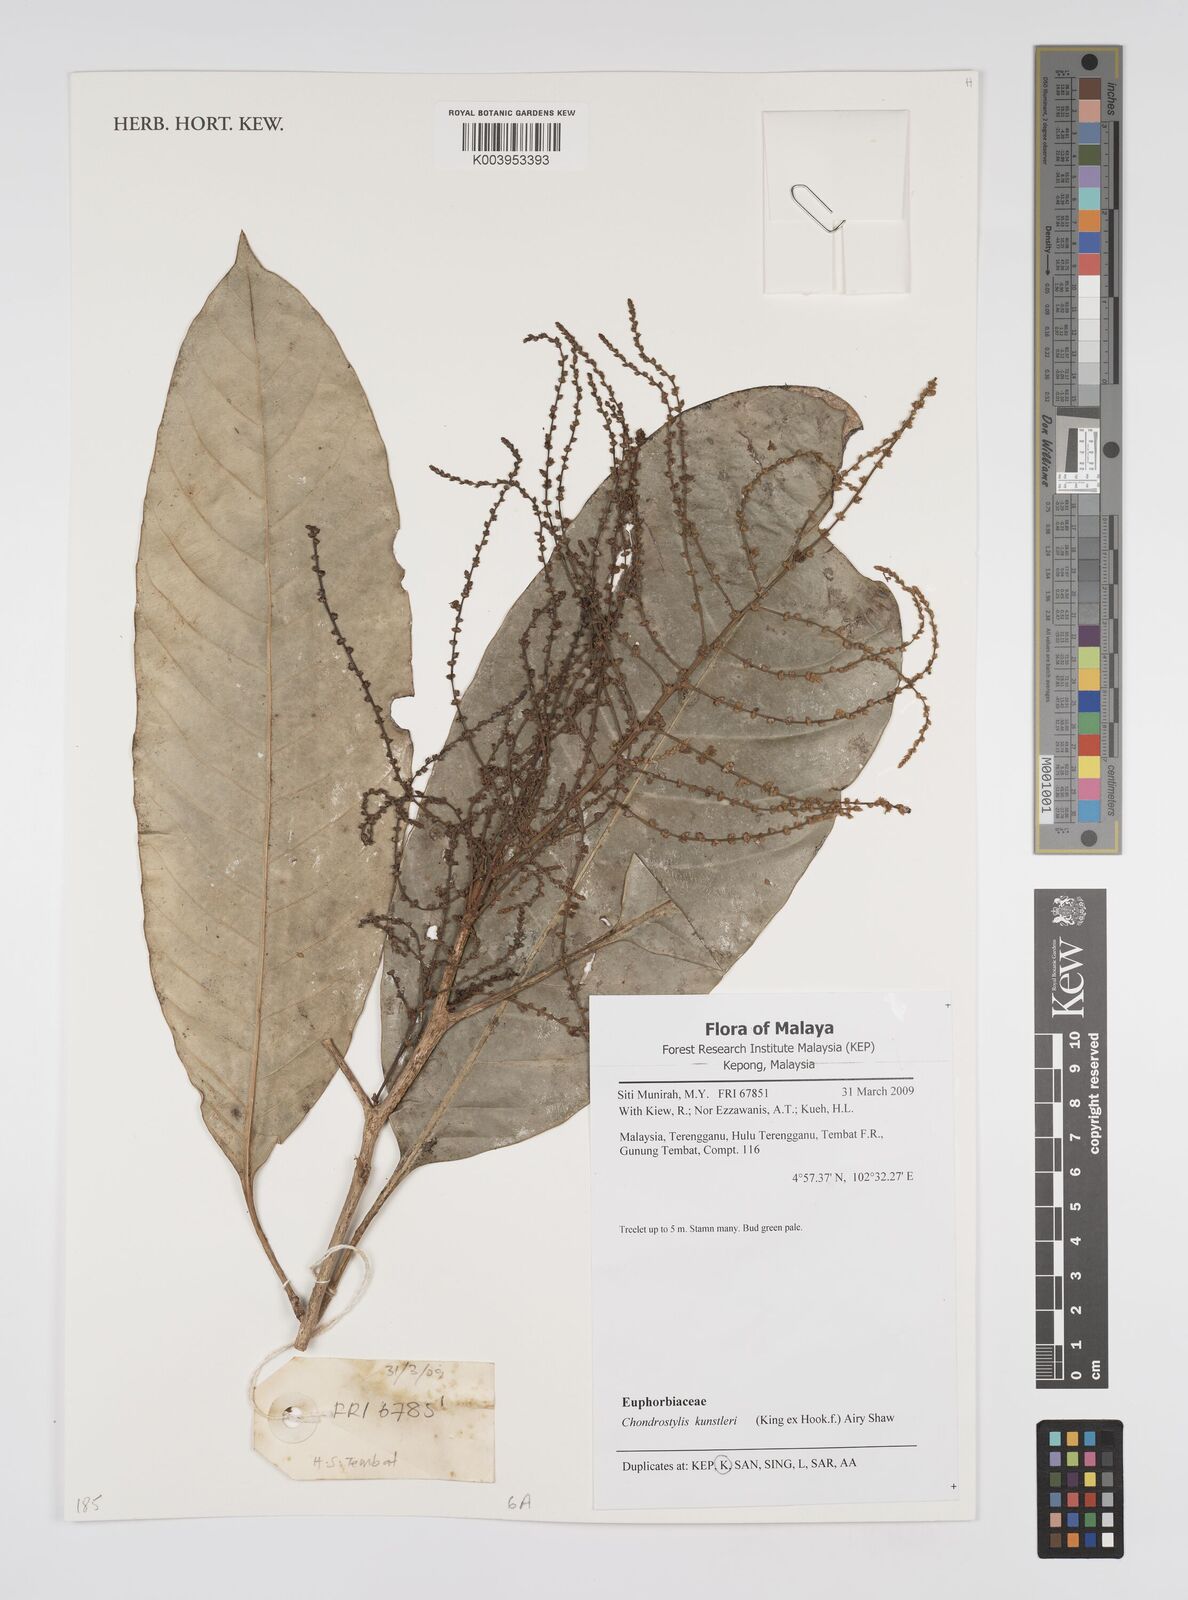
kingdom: Plantae
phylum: Tracheophyta
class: Magnoliopsida
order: Malpighiales
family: Euphorbiaceae
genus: Chondrostylis
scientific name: Chondrostylis kunstleri
